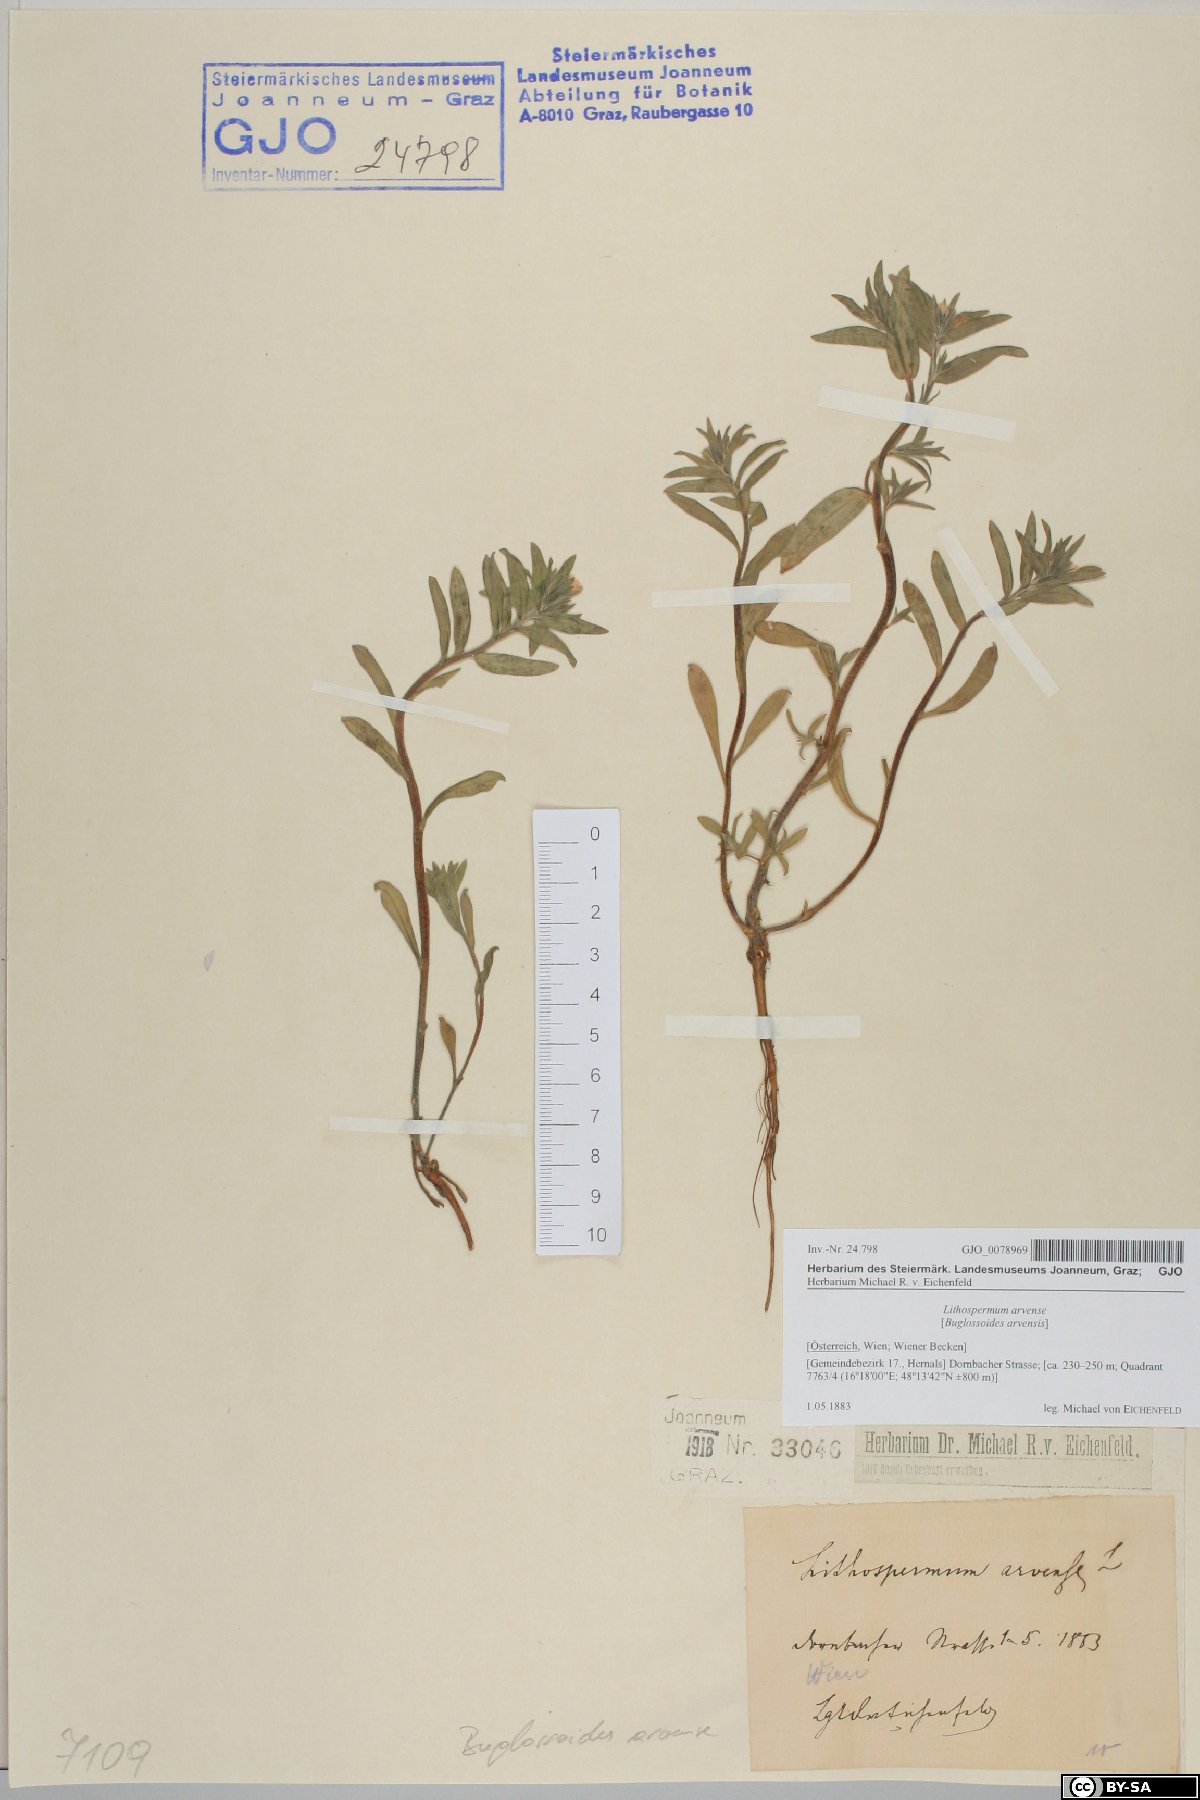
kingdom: Plantae
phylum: Tracheophyta
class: Magnoliopsida
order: Boraginales
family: Boraginaceae
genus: Buglossoides
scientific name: Buglossoides arvensis
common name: Corn gromwell
